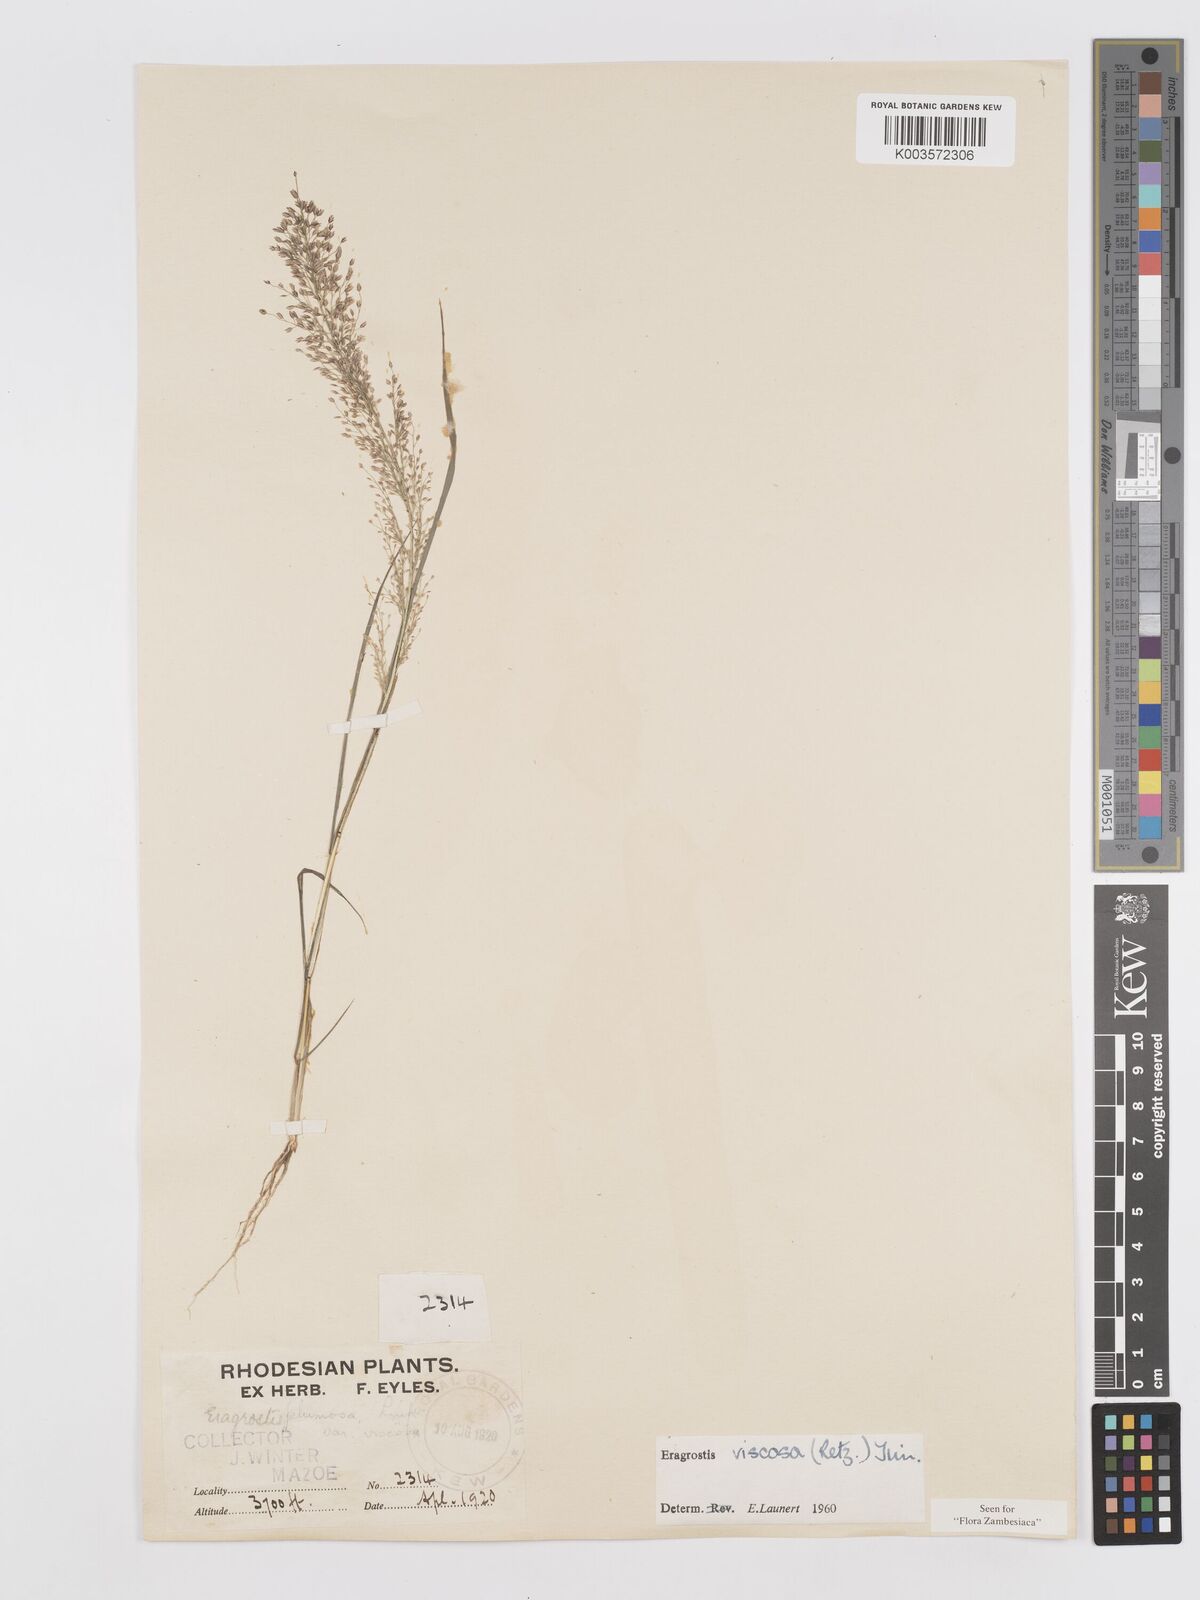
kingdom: Plantae
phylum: Tracheophyta
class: Liliopsida
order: Poales
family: Poaceae
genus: Eragrostis
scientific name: Eragrostis
